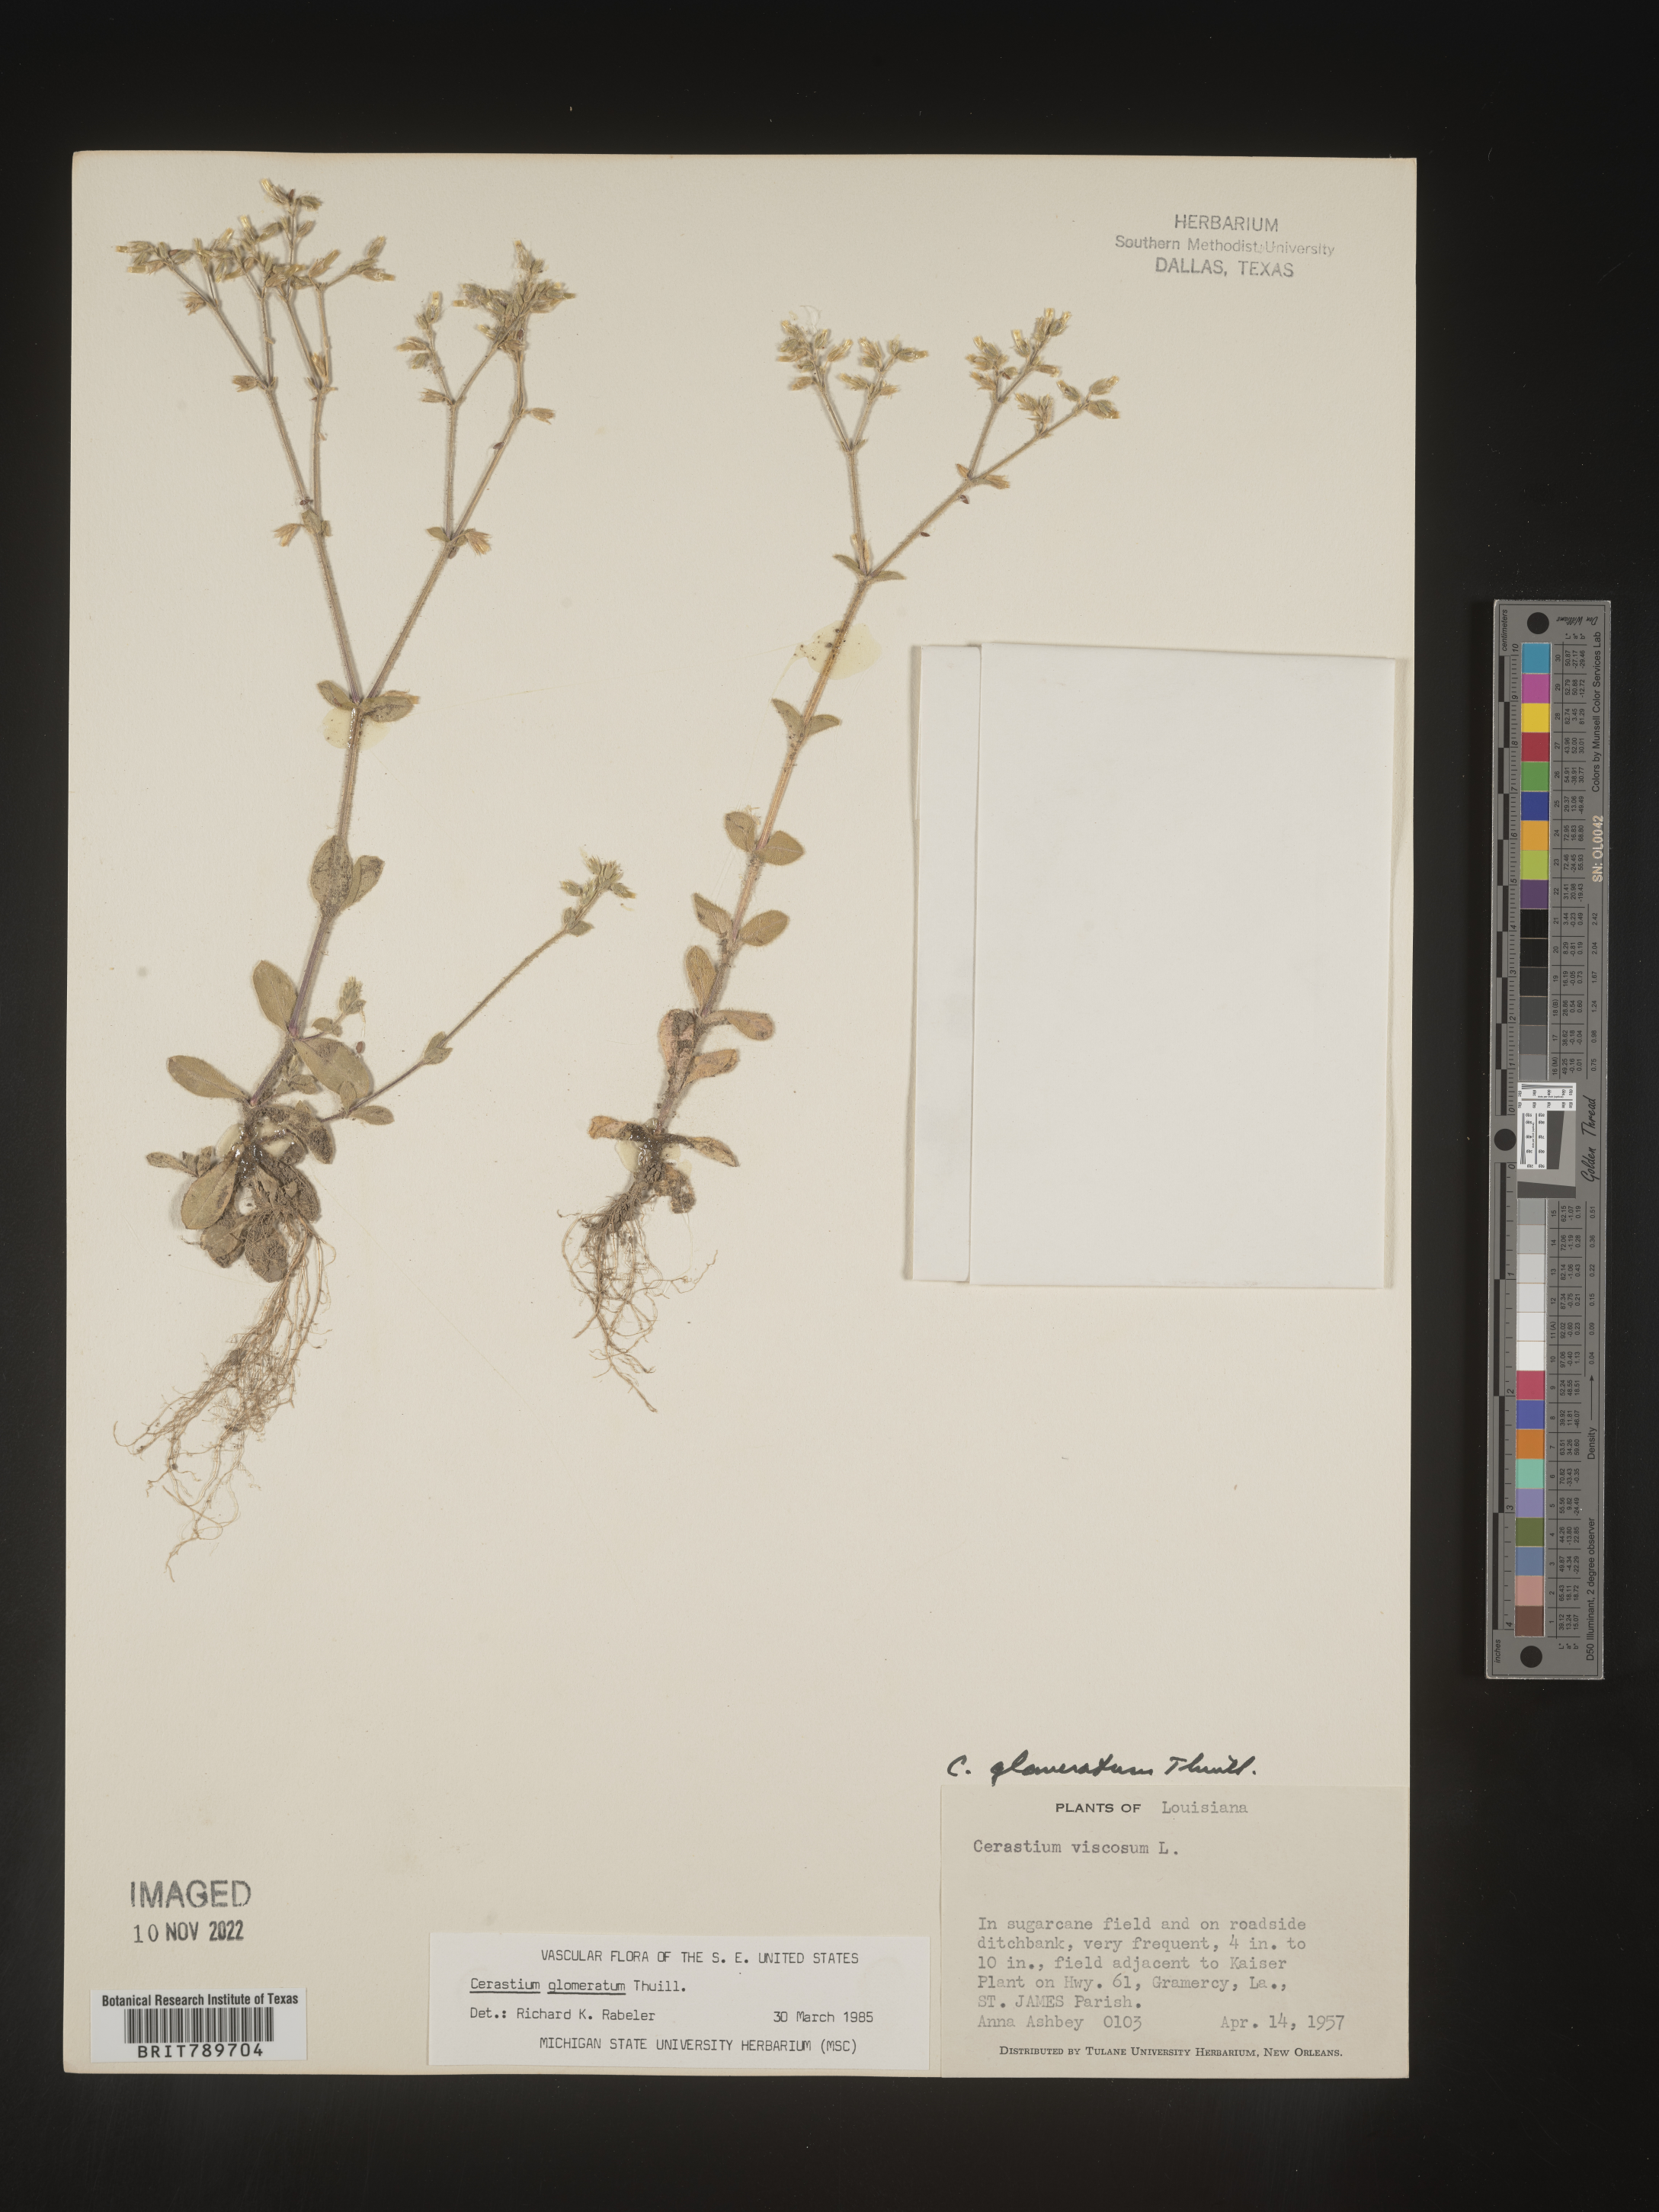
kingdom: Plantae
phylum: Tracheophyta
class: Magnoliopsida
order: Caryophyllales
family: Caryophyllaceae
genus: Cerastium
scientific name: Cerastium glomeratum
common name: Sticky chickweed
